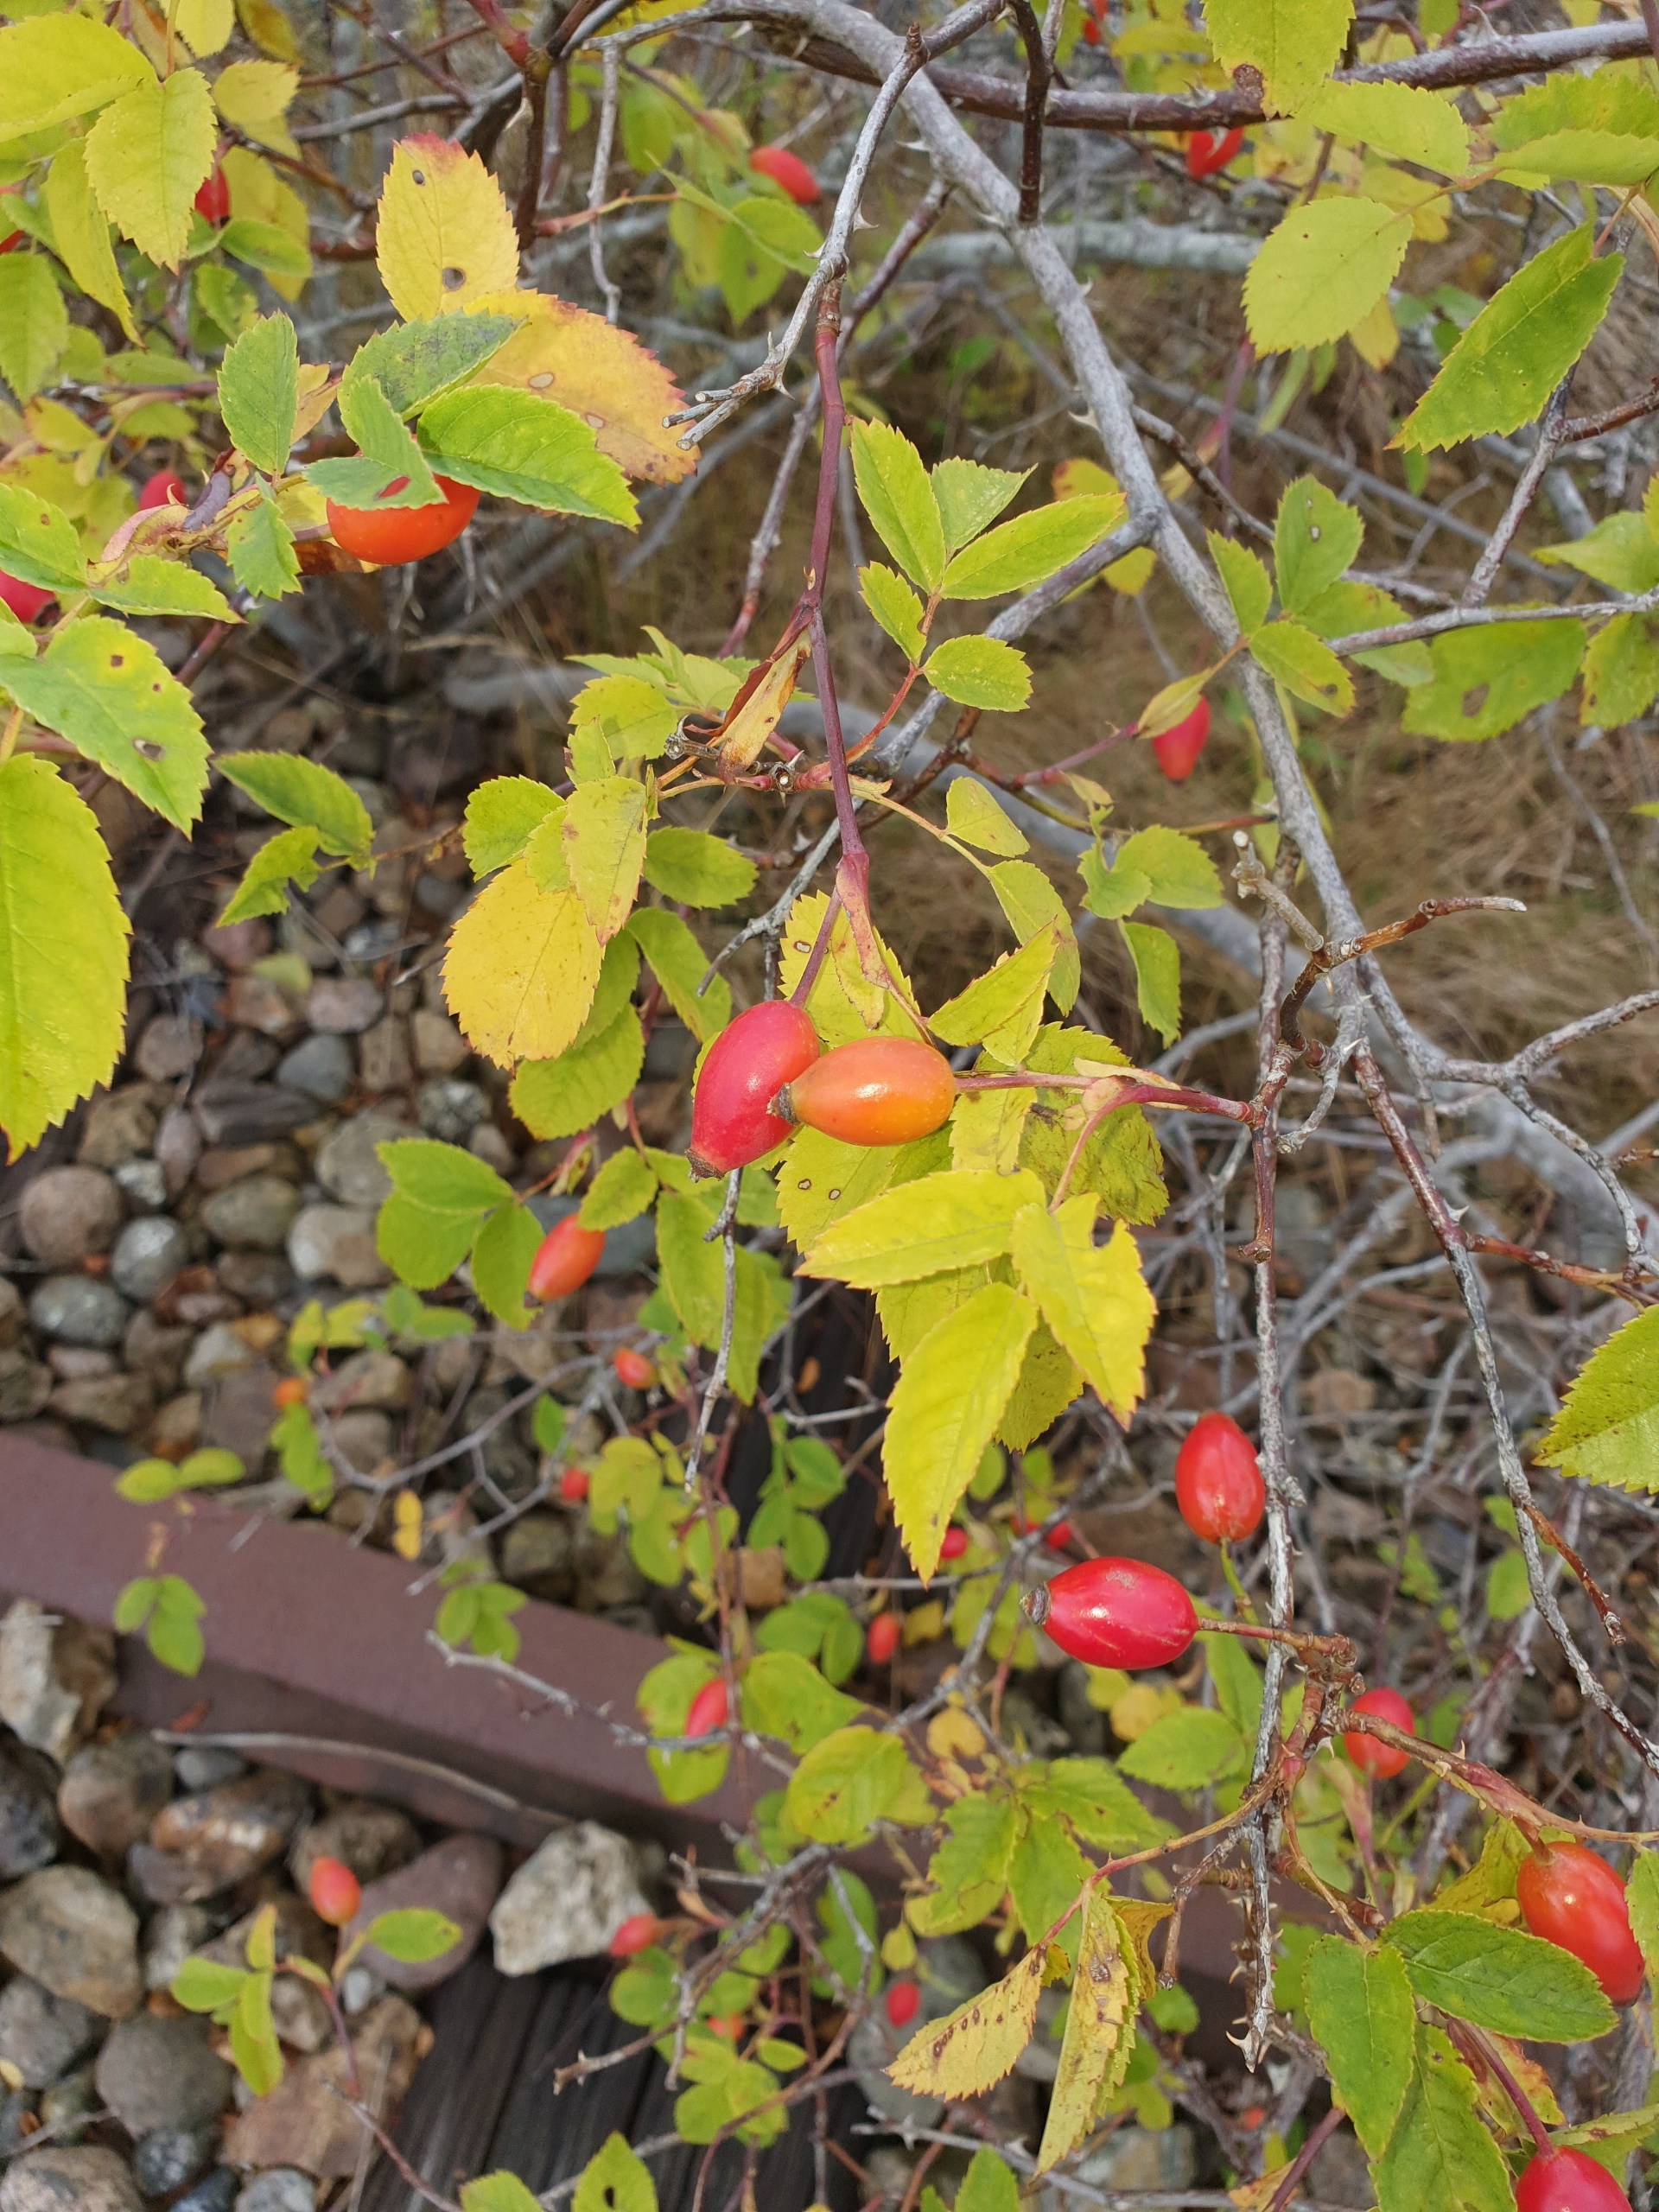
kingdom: Plantae
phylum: Tracheophyta
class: Magnoliopsida
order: Rosales
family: Rosaceae
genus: Rosa
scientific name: Rosa canina
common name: Hunde-rose
